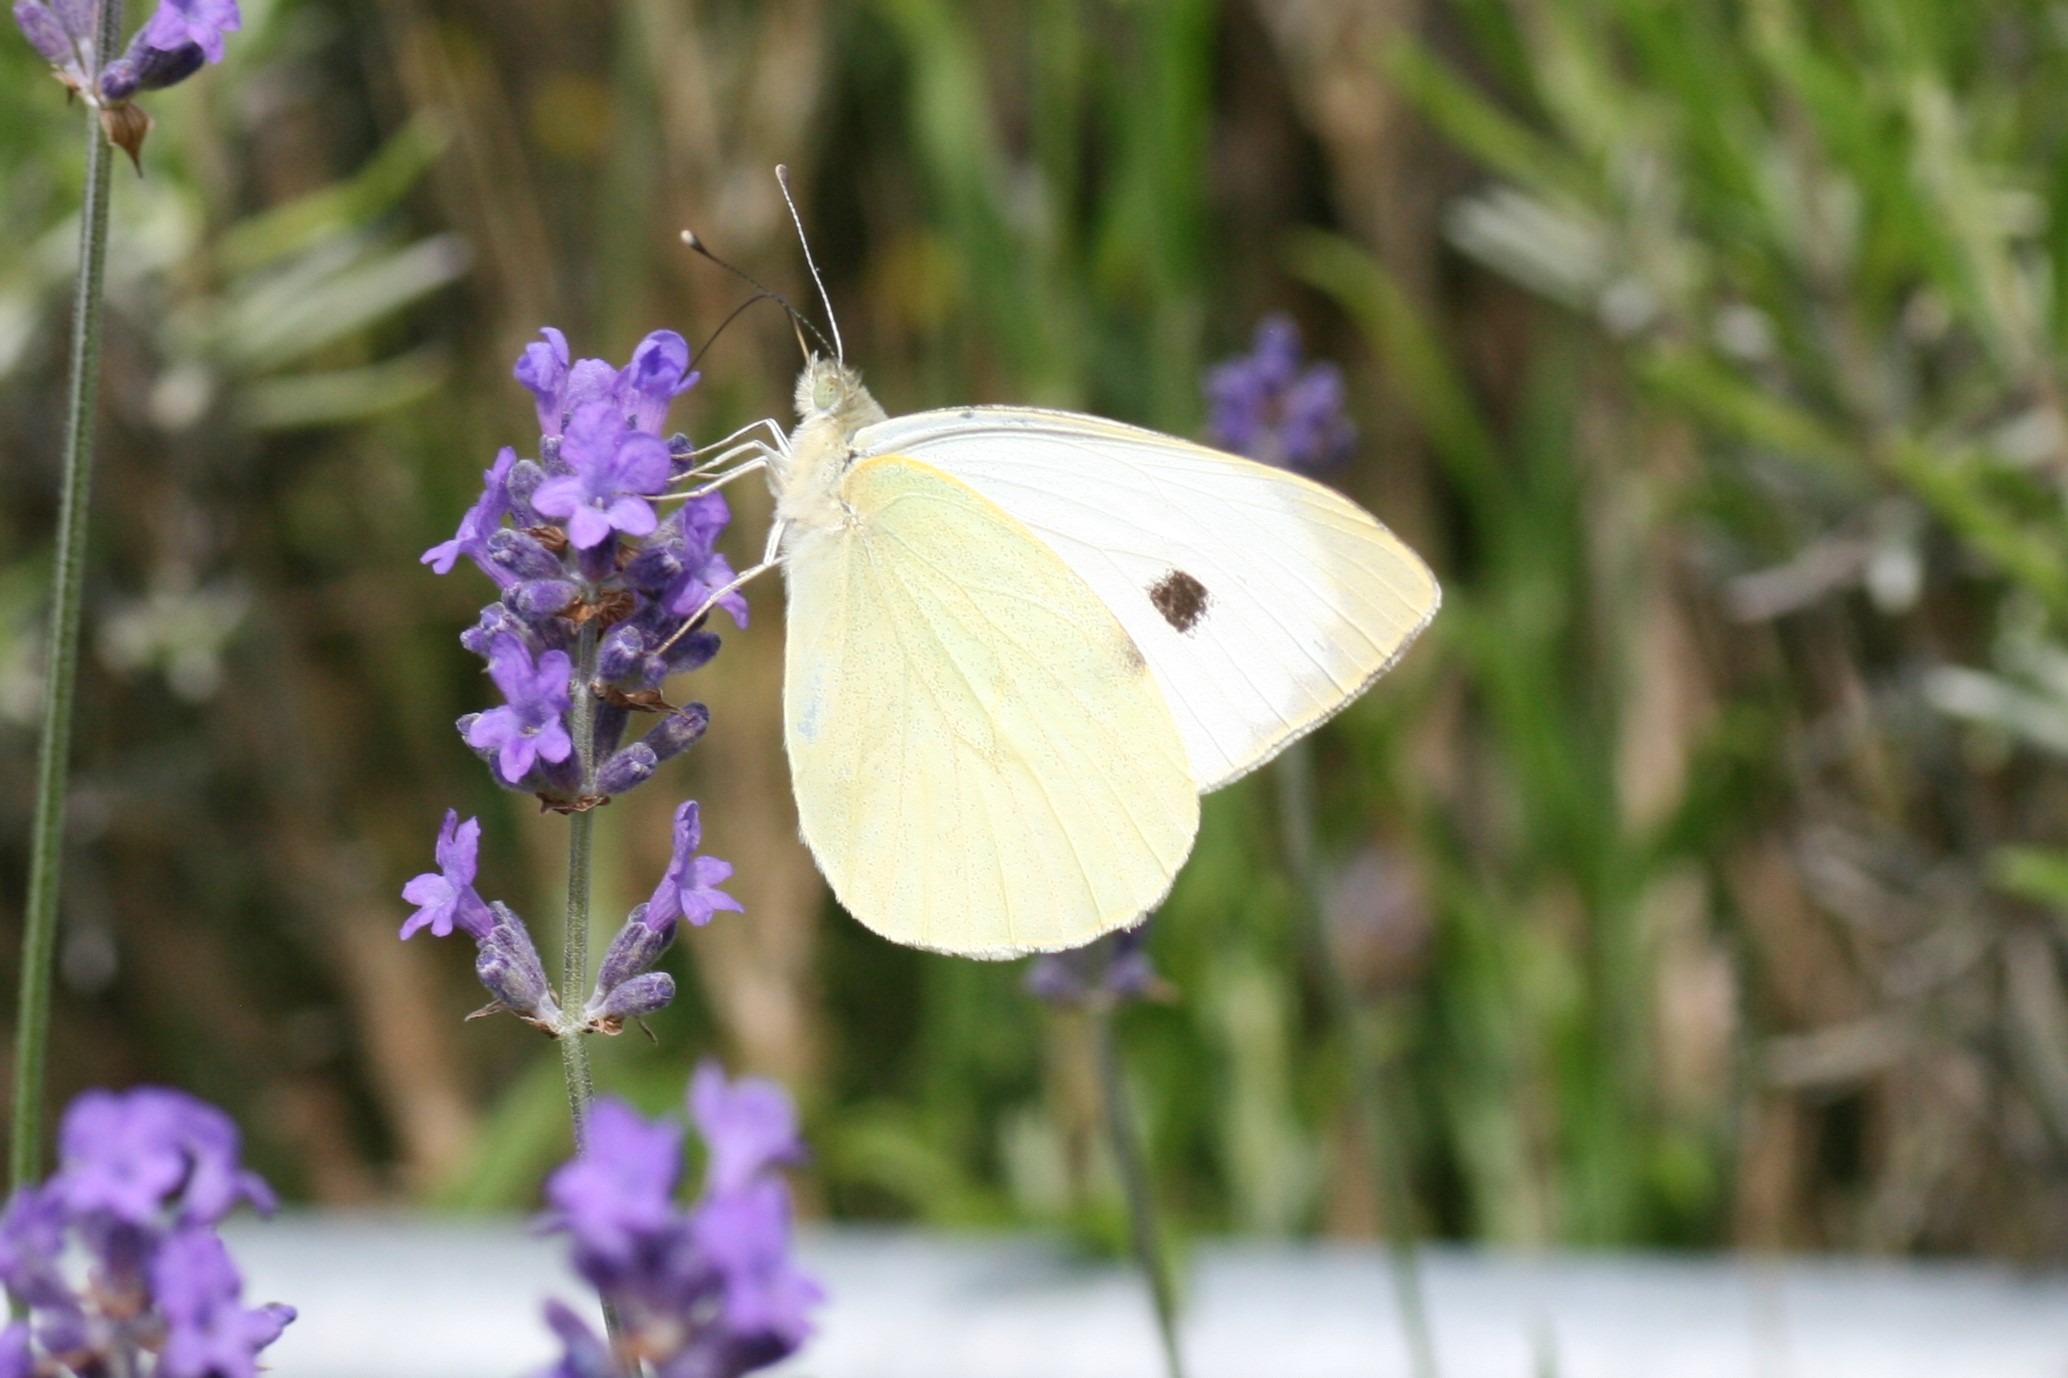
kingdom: Animalia
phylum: Arthropoda
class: Insecta
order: Lepidoptera
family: Pieridae
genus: Pieris
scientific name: Pieris brassicae
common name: Stor kålsommerfugl
